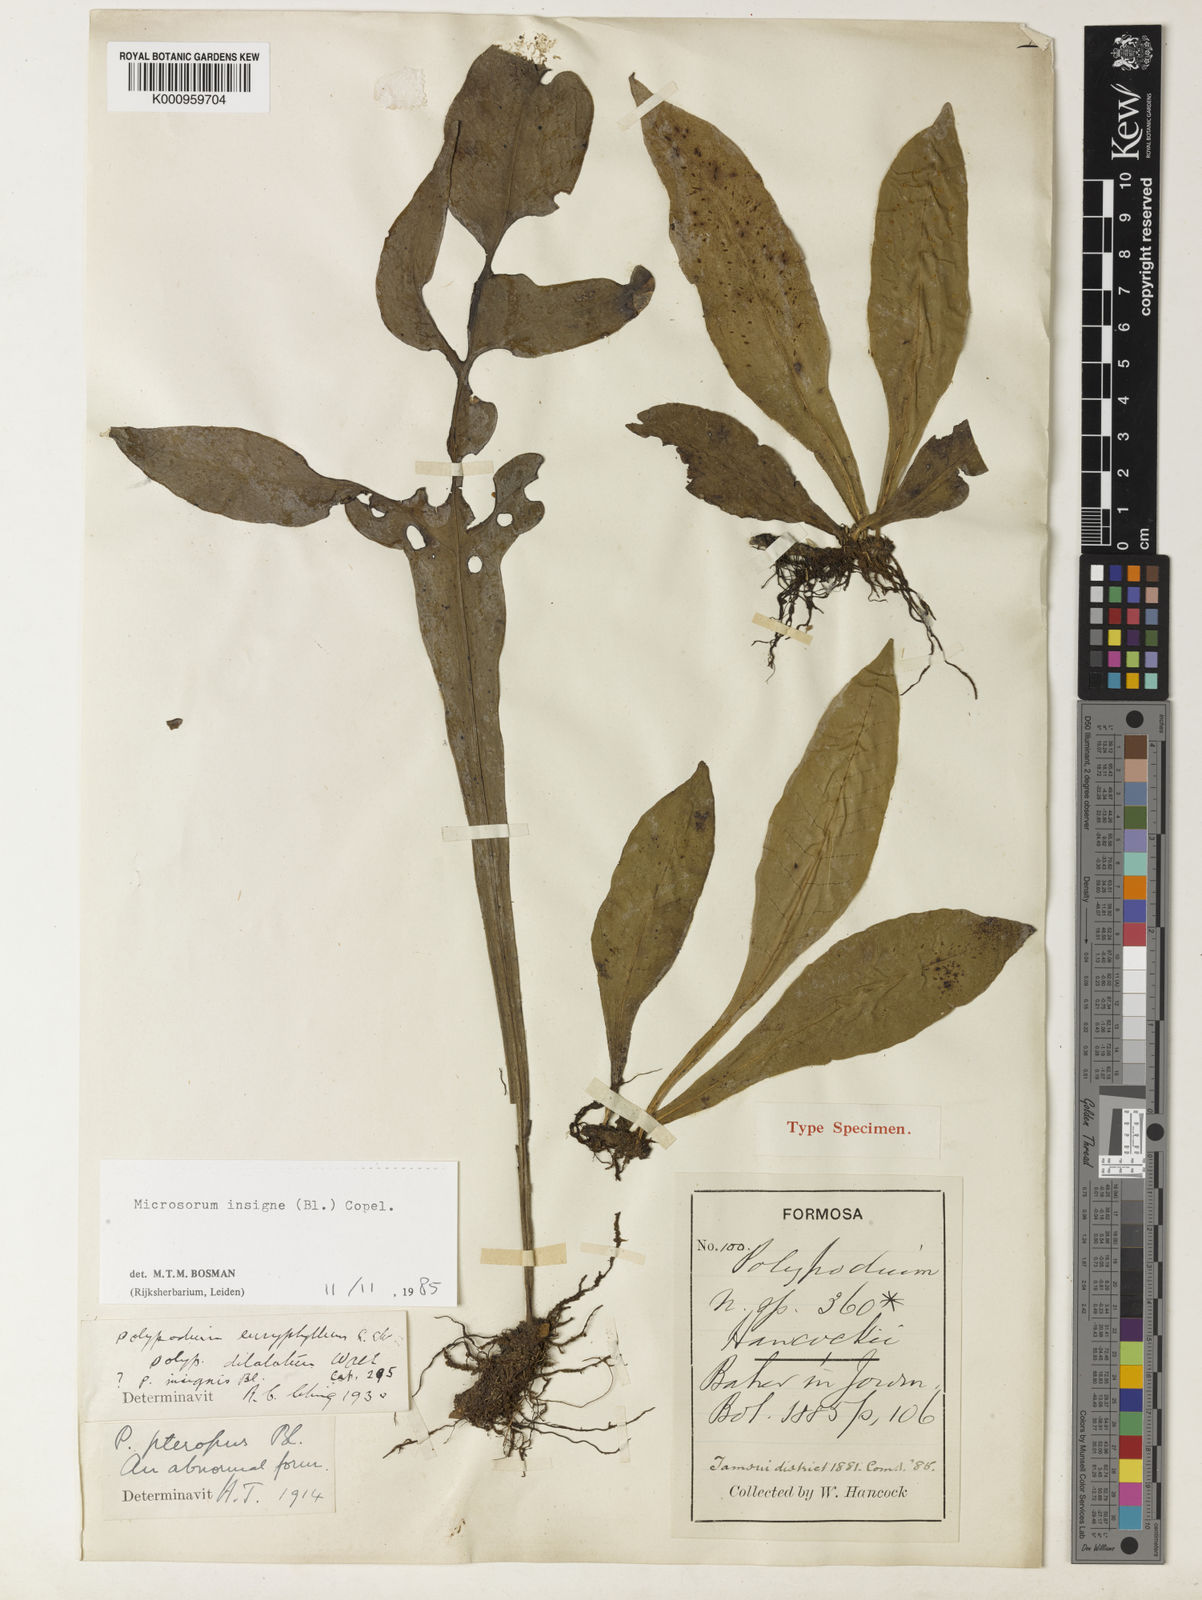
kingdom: Plantae
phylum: Tracheophyta
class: Polypodiopsida
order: Polypodiales
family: Polypodiaceae
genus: Leptochilus
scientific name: Leptochilus insignis
